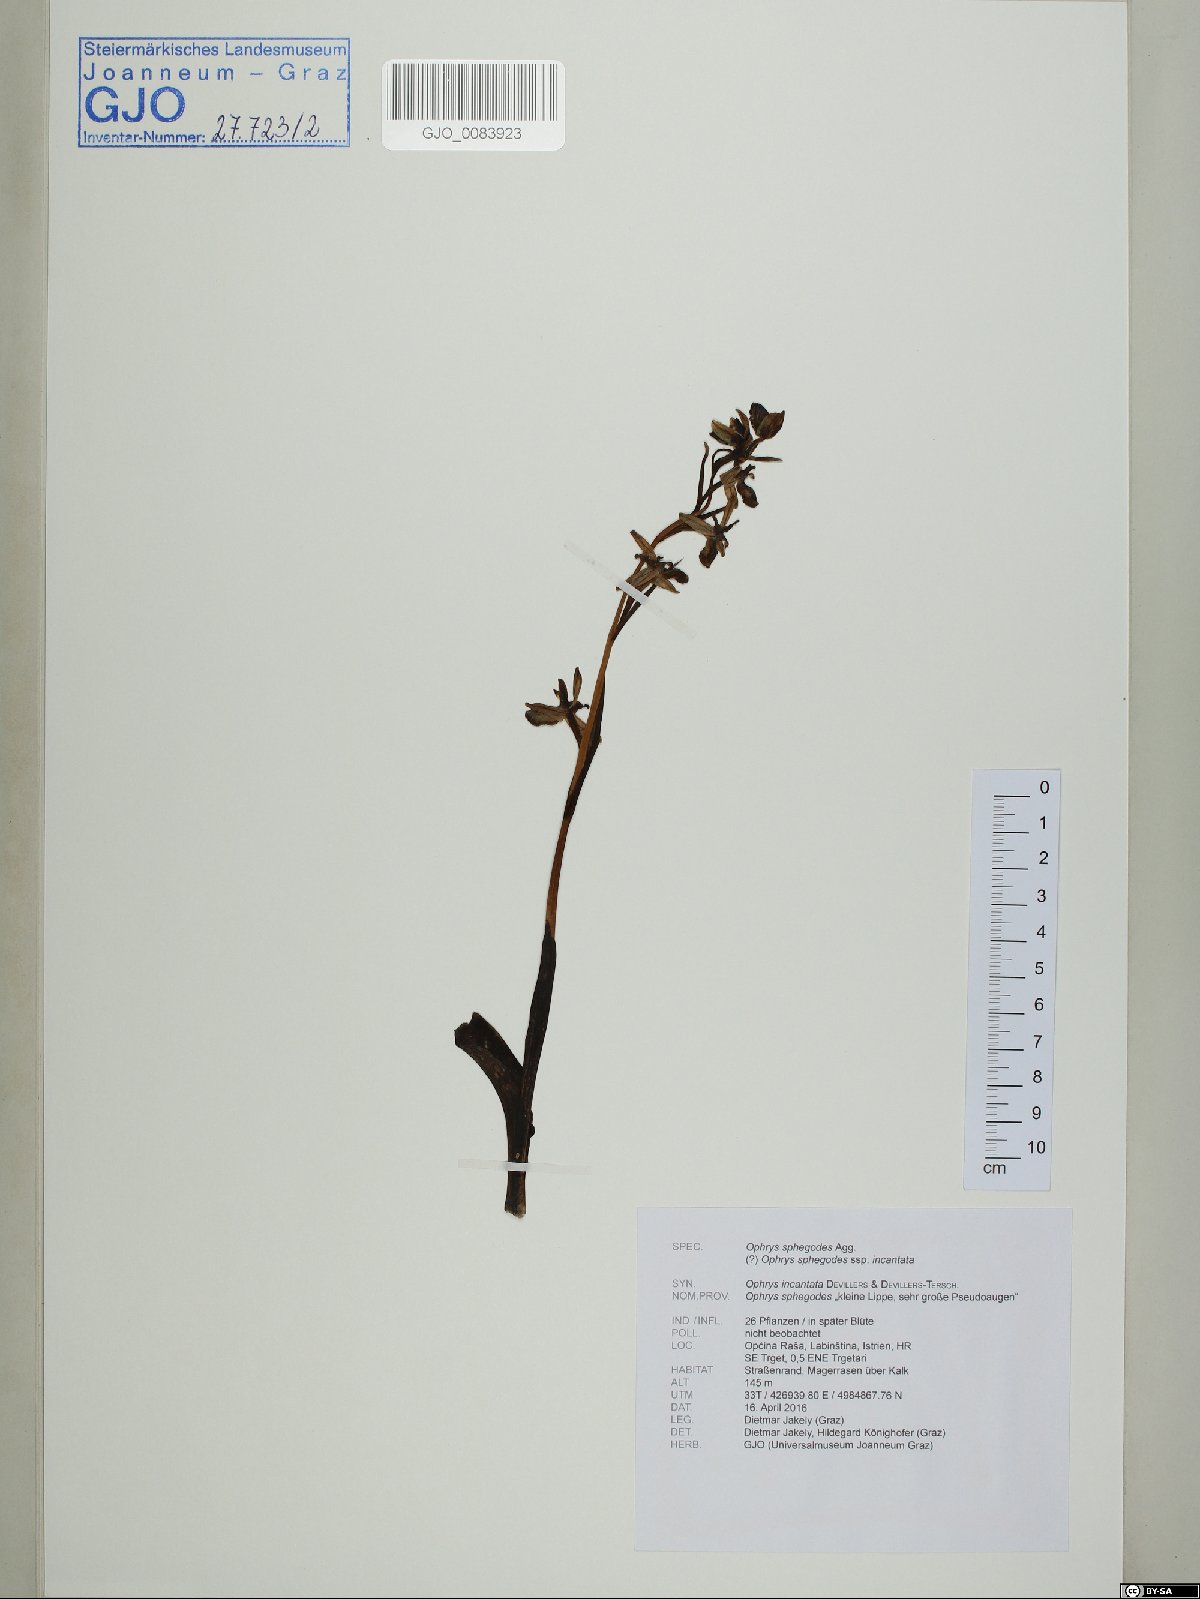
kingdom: Plantae
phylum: Tracheophyta
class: Liliopsida
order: Asparagales
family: Orchidaceae
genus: Ophrys
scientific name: Ophrys sphegodes
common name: Early spider-orchid
